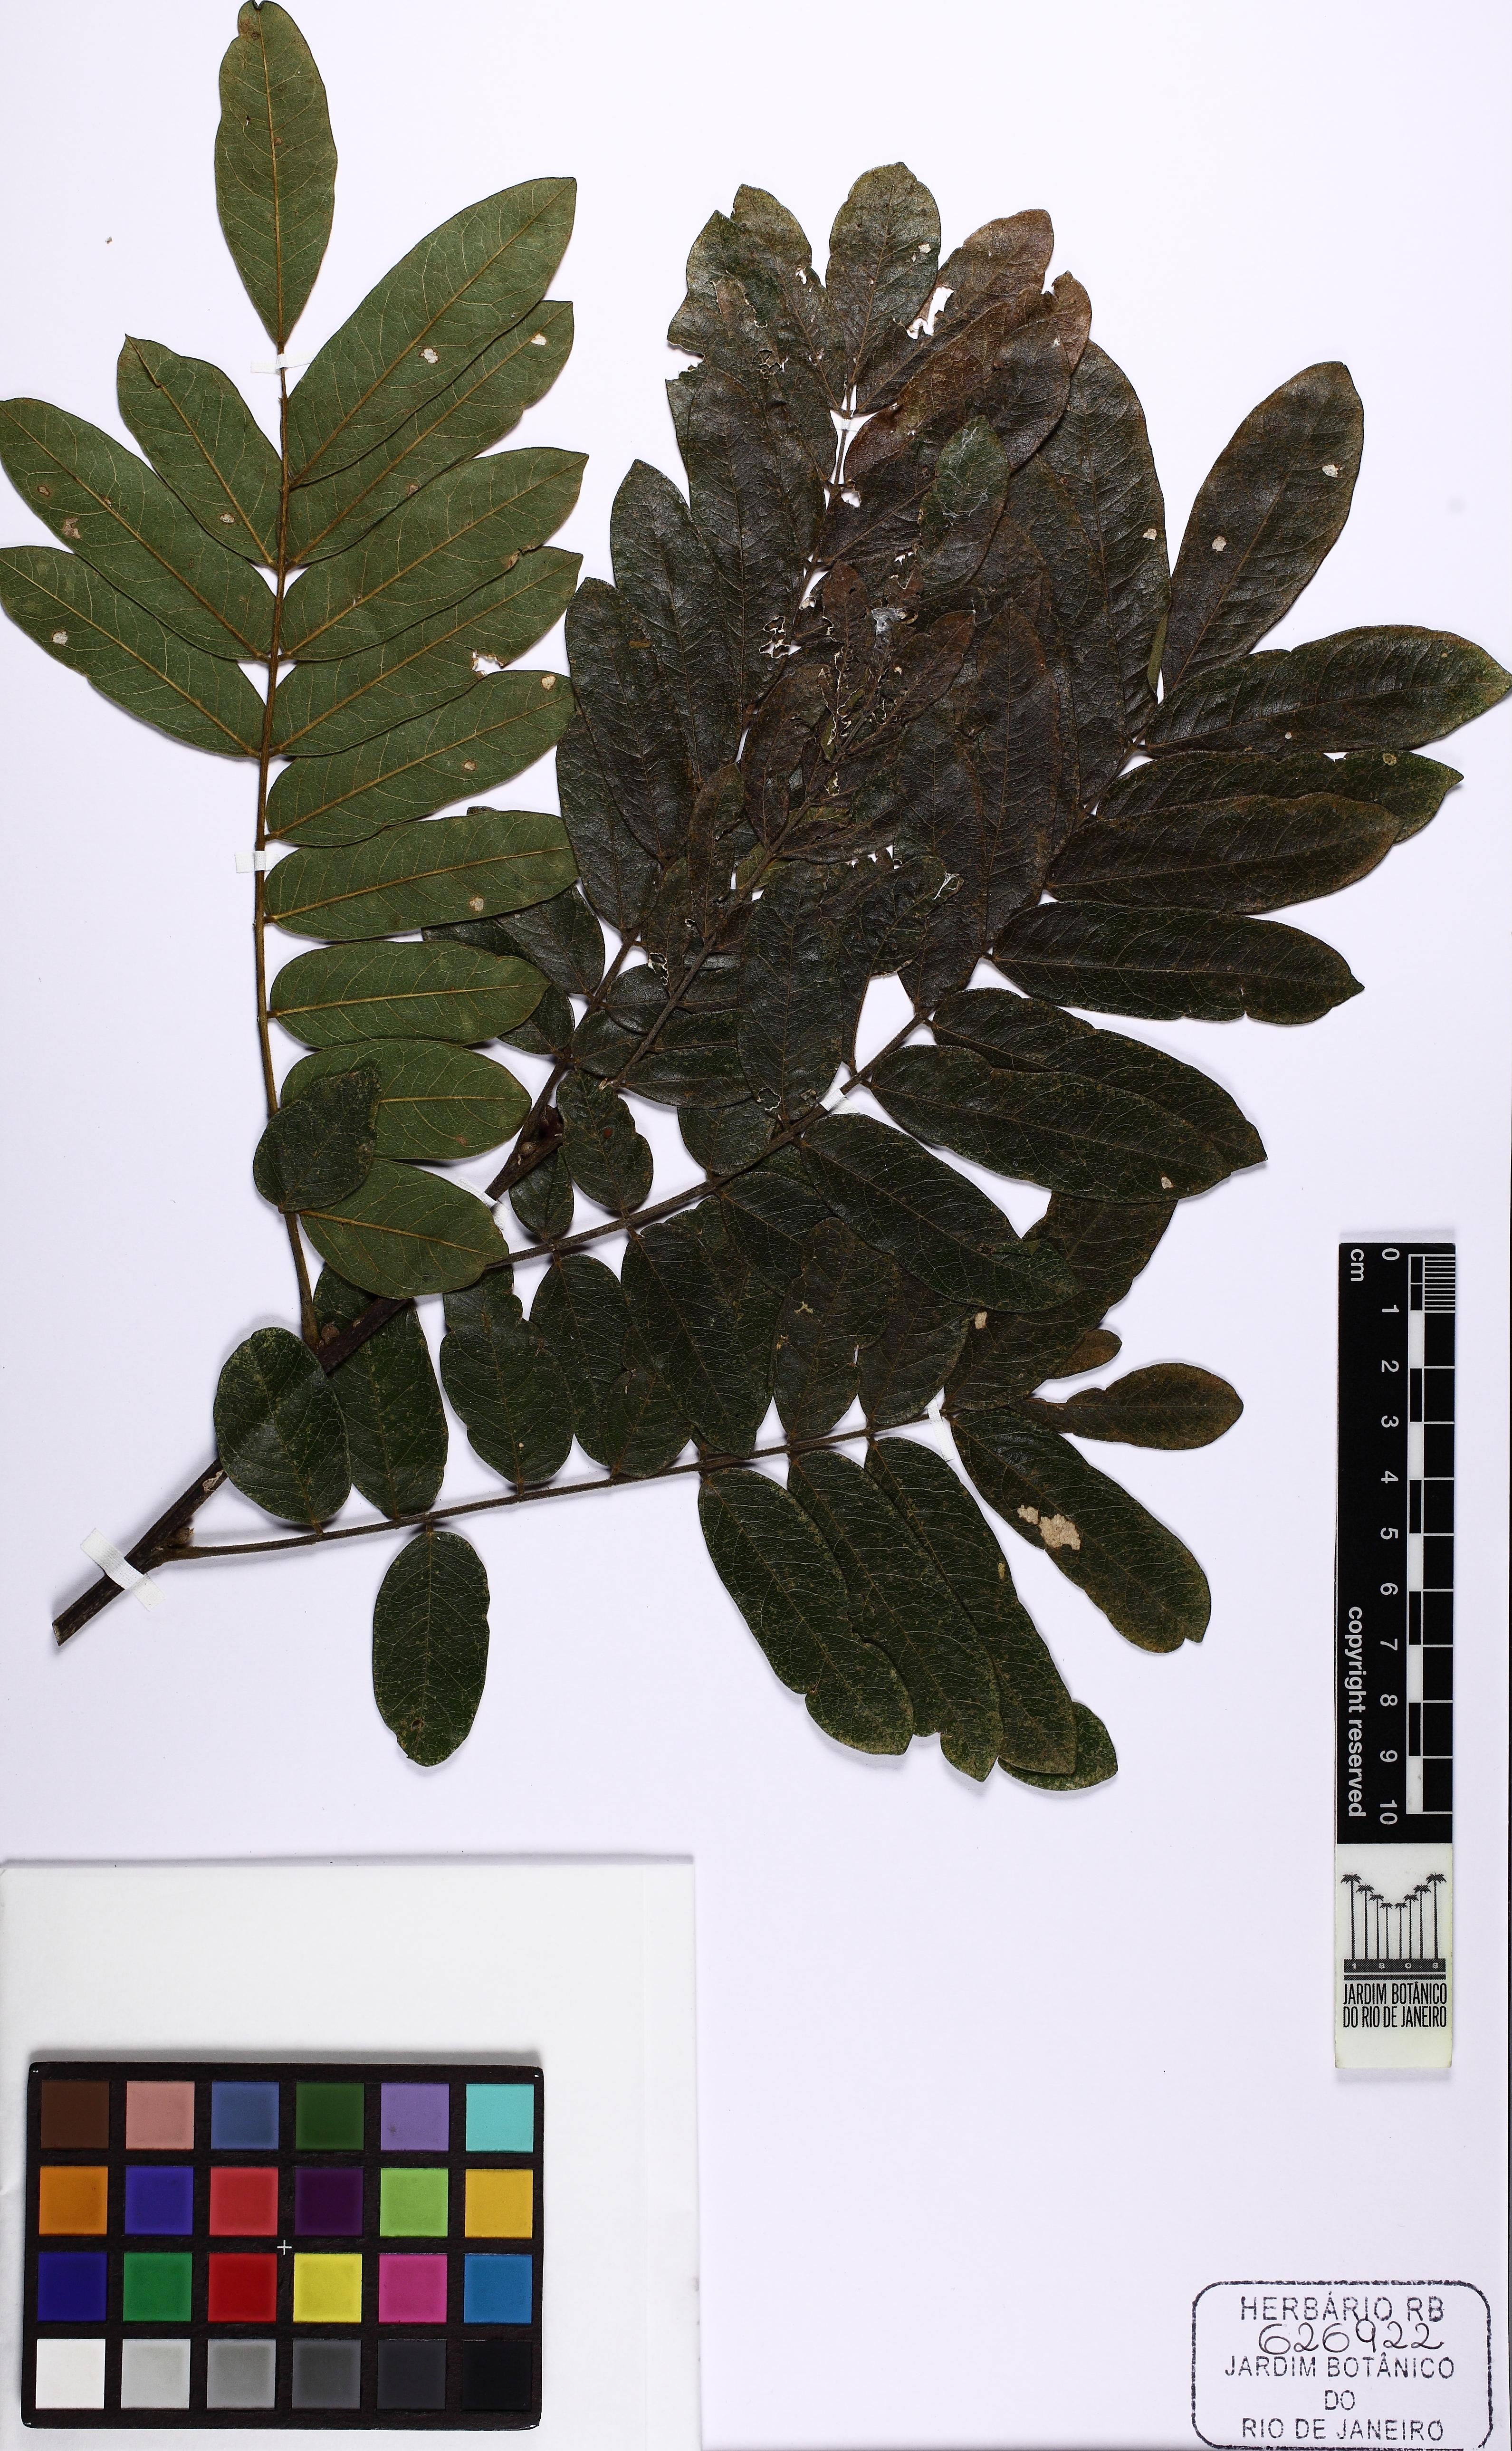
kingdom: Plantae
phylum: Tracheophyta
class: Magnoliopsida
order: Fabales
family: Fabaceae
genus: Swartzia
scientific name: Swartzia flaemingii
